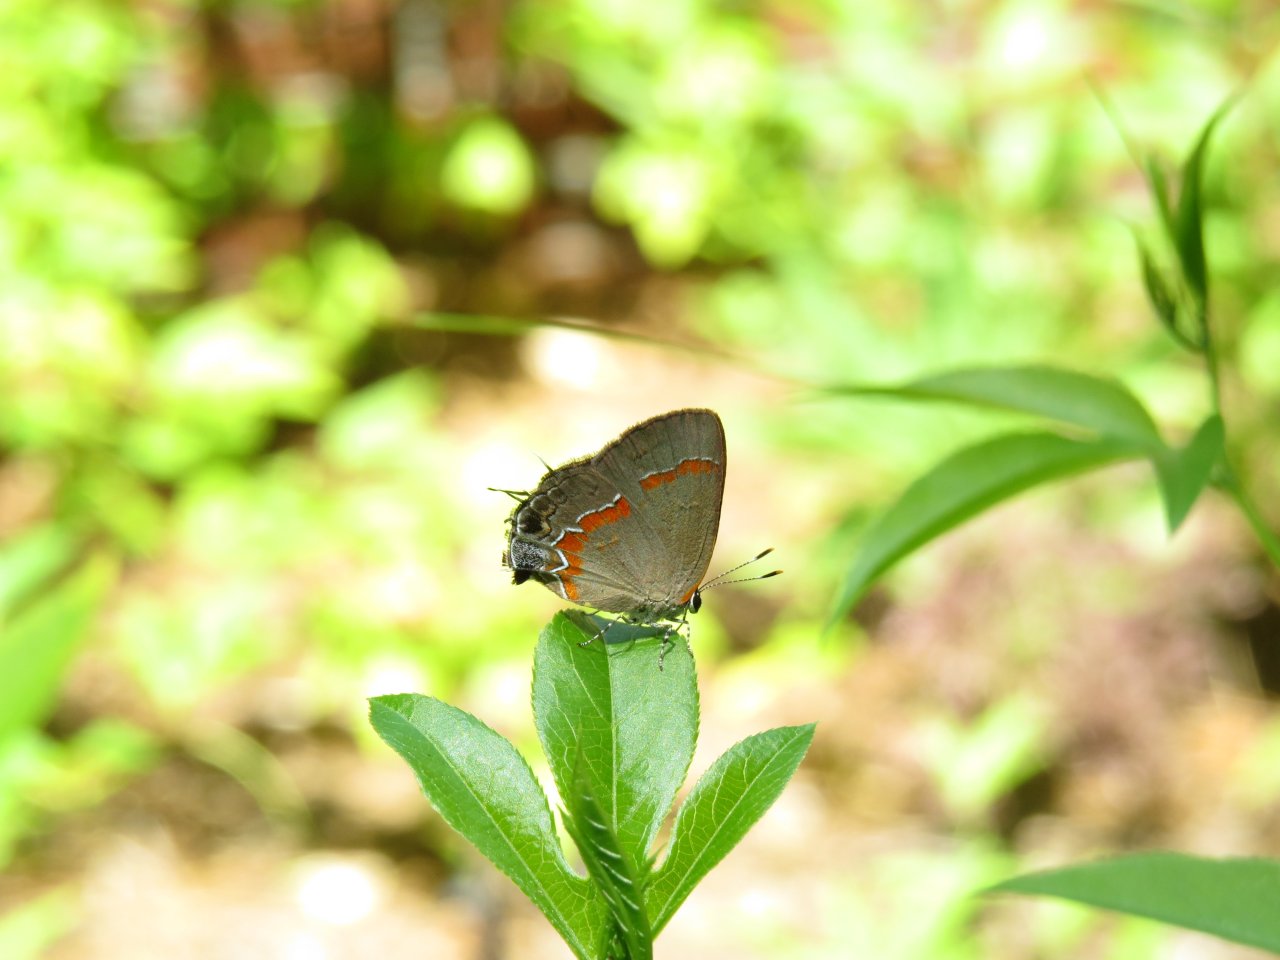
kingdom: Animalia
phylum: Arthropoda
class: Insecta
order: Lepidoptera
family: Lycaenidae
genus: Calycopis
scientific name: Calycopis cecrops
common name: Red-banded Hairstreak
